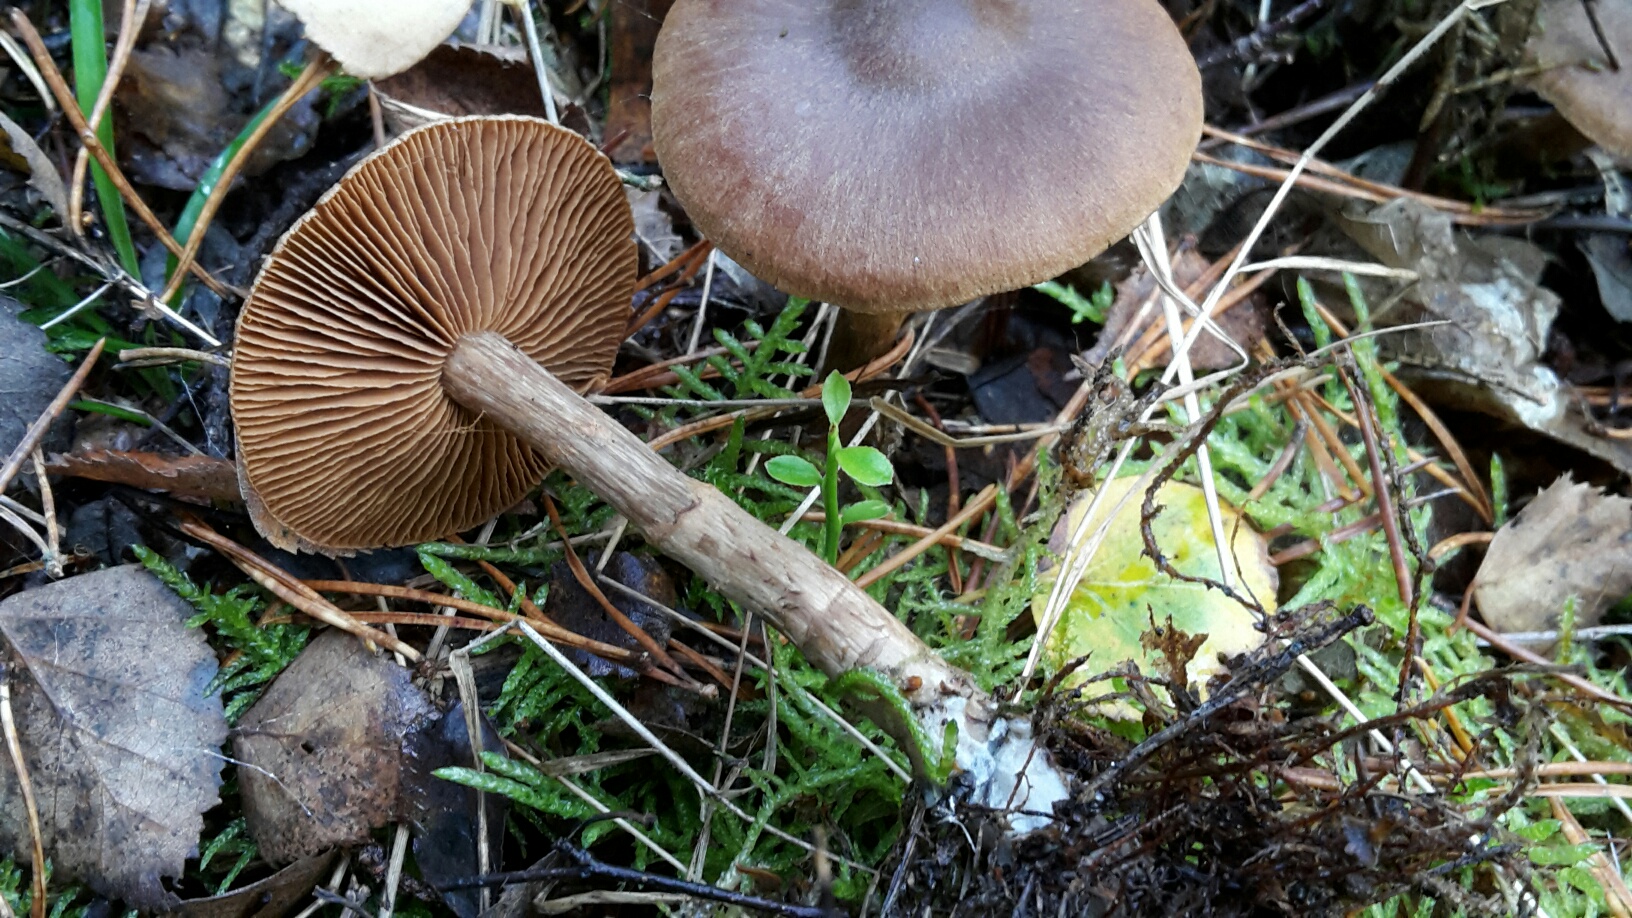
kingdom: Fungi
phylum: Basidiomycota
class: Agaricomycetes
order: Agaricales
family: Cortinariaceae
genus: Cortinarius
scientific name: Cortinarius raphanoides
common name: ræddike-slørhat
